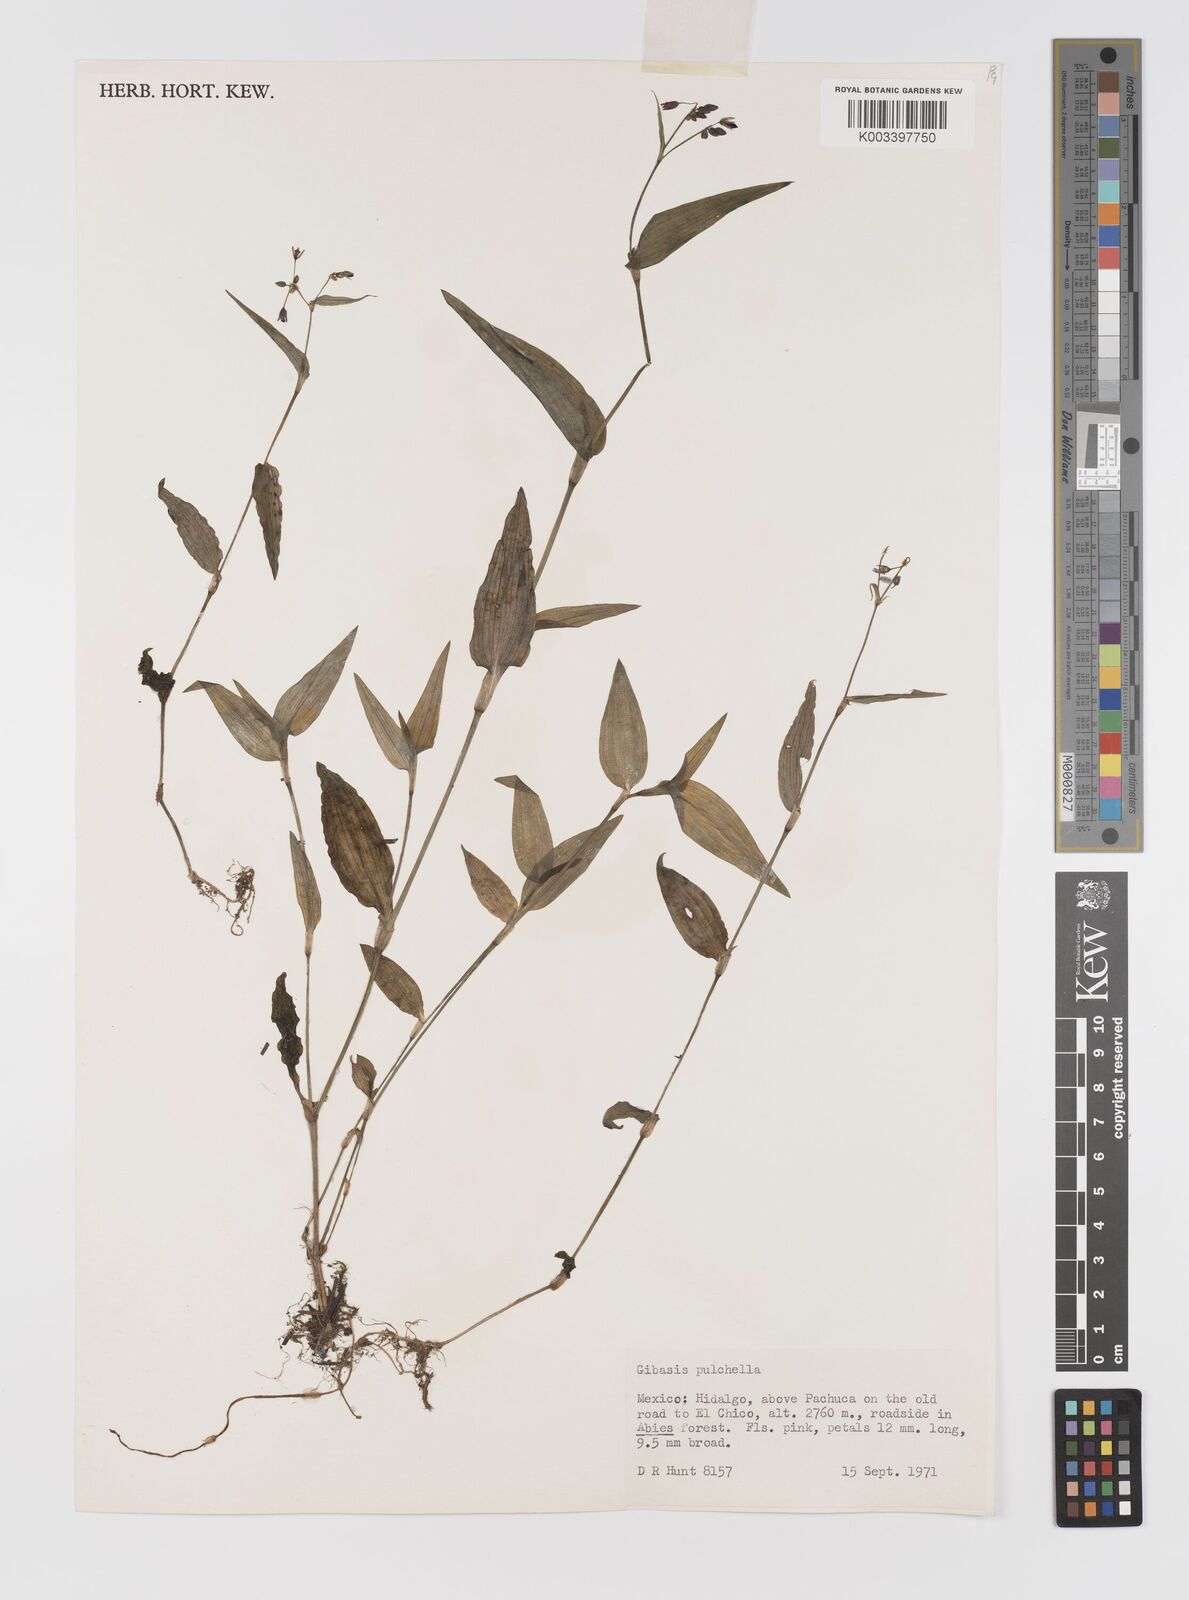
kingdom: Plantae
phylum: Tracheophyta
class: Liliopsida
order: Commelinales
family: Commelinaceae
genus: Gibasis
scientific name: Gibasis pulchella
